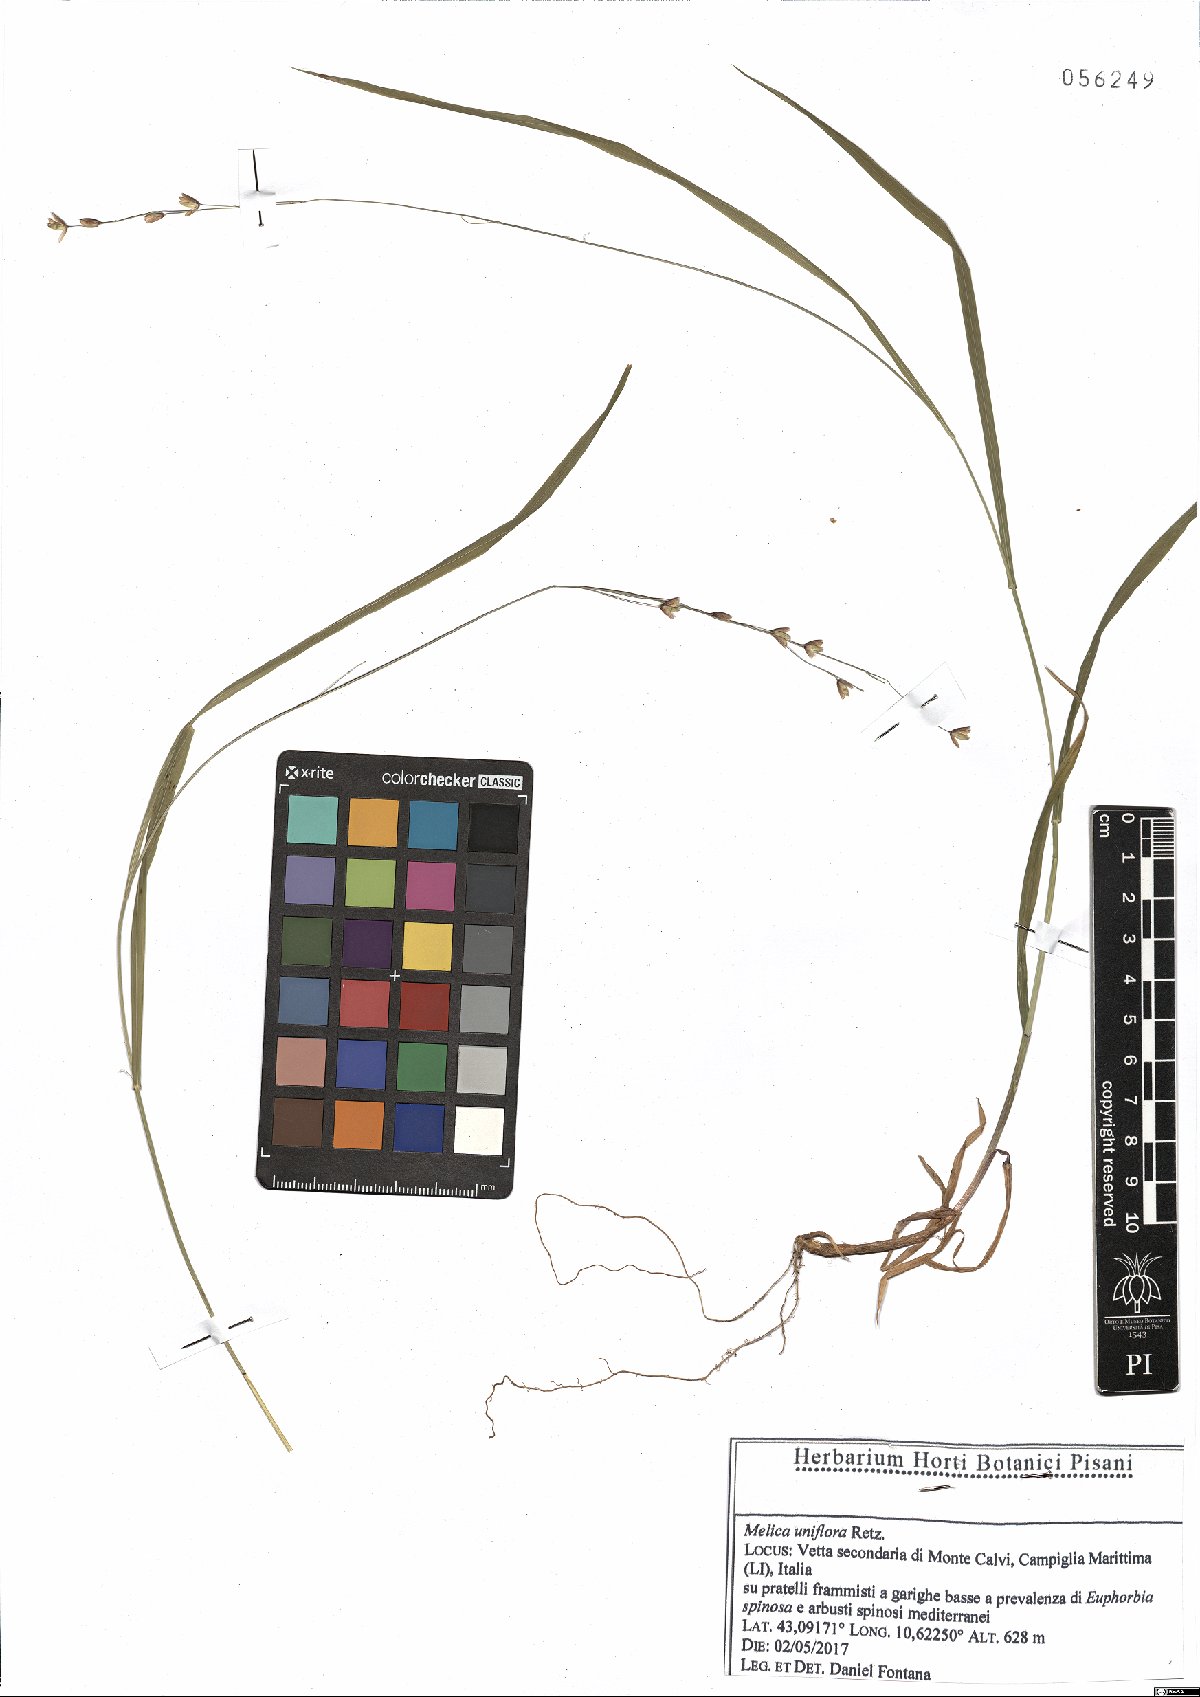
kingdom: Plantae
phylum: Tracheophyta
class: Liliopsida
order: Poales
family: Poaceae
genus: Melica
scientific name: Melica uniflora
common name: Wood melick
